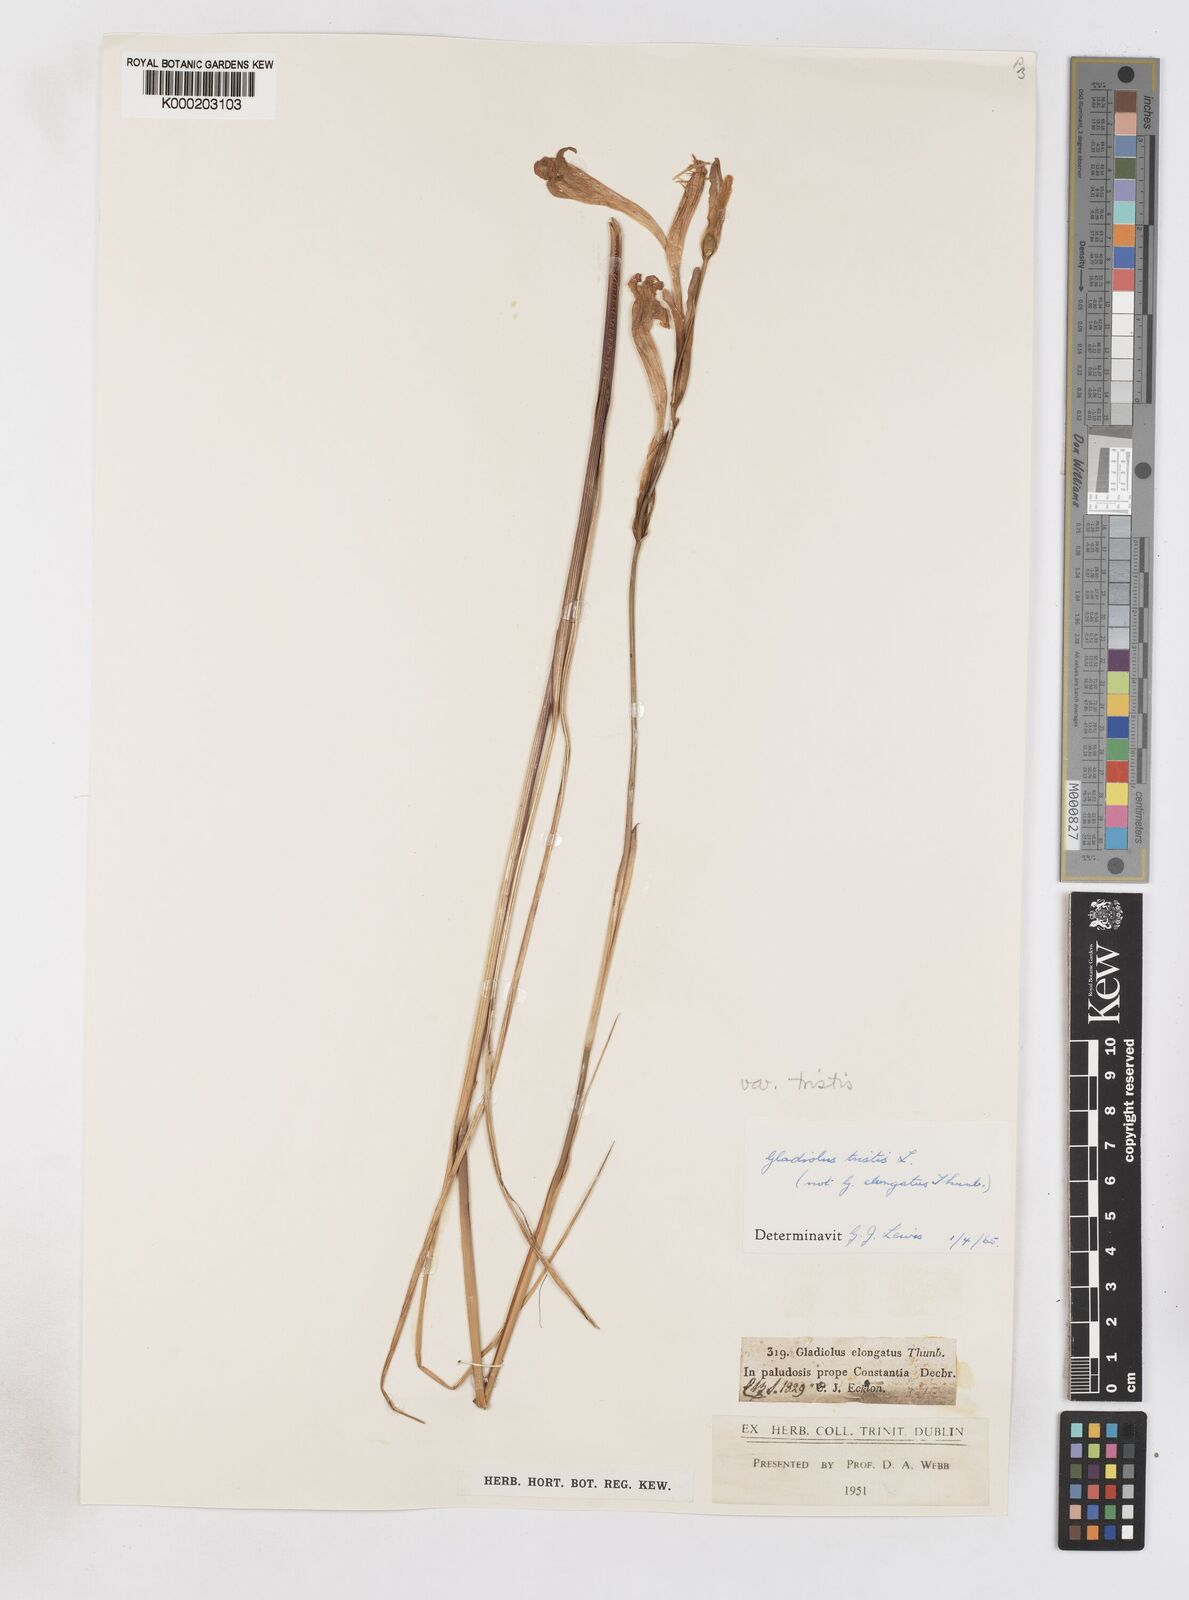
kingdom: Plantae
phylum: Tracheophyta
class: Liliopsida
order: Asparagales
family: Iridaceae
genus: Gladiolus
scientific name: Gladiolus tristis
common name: Ever-flowering gladiolus
